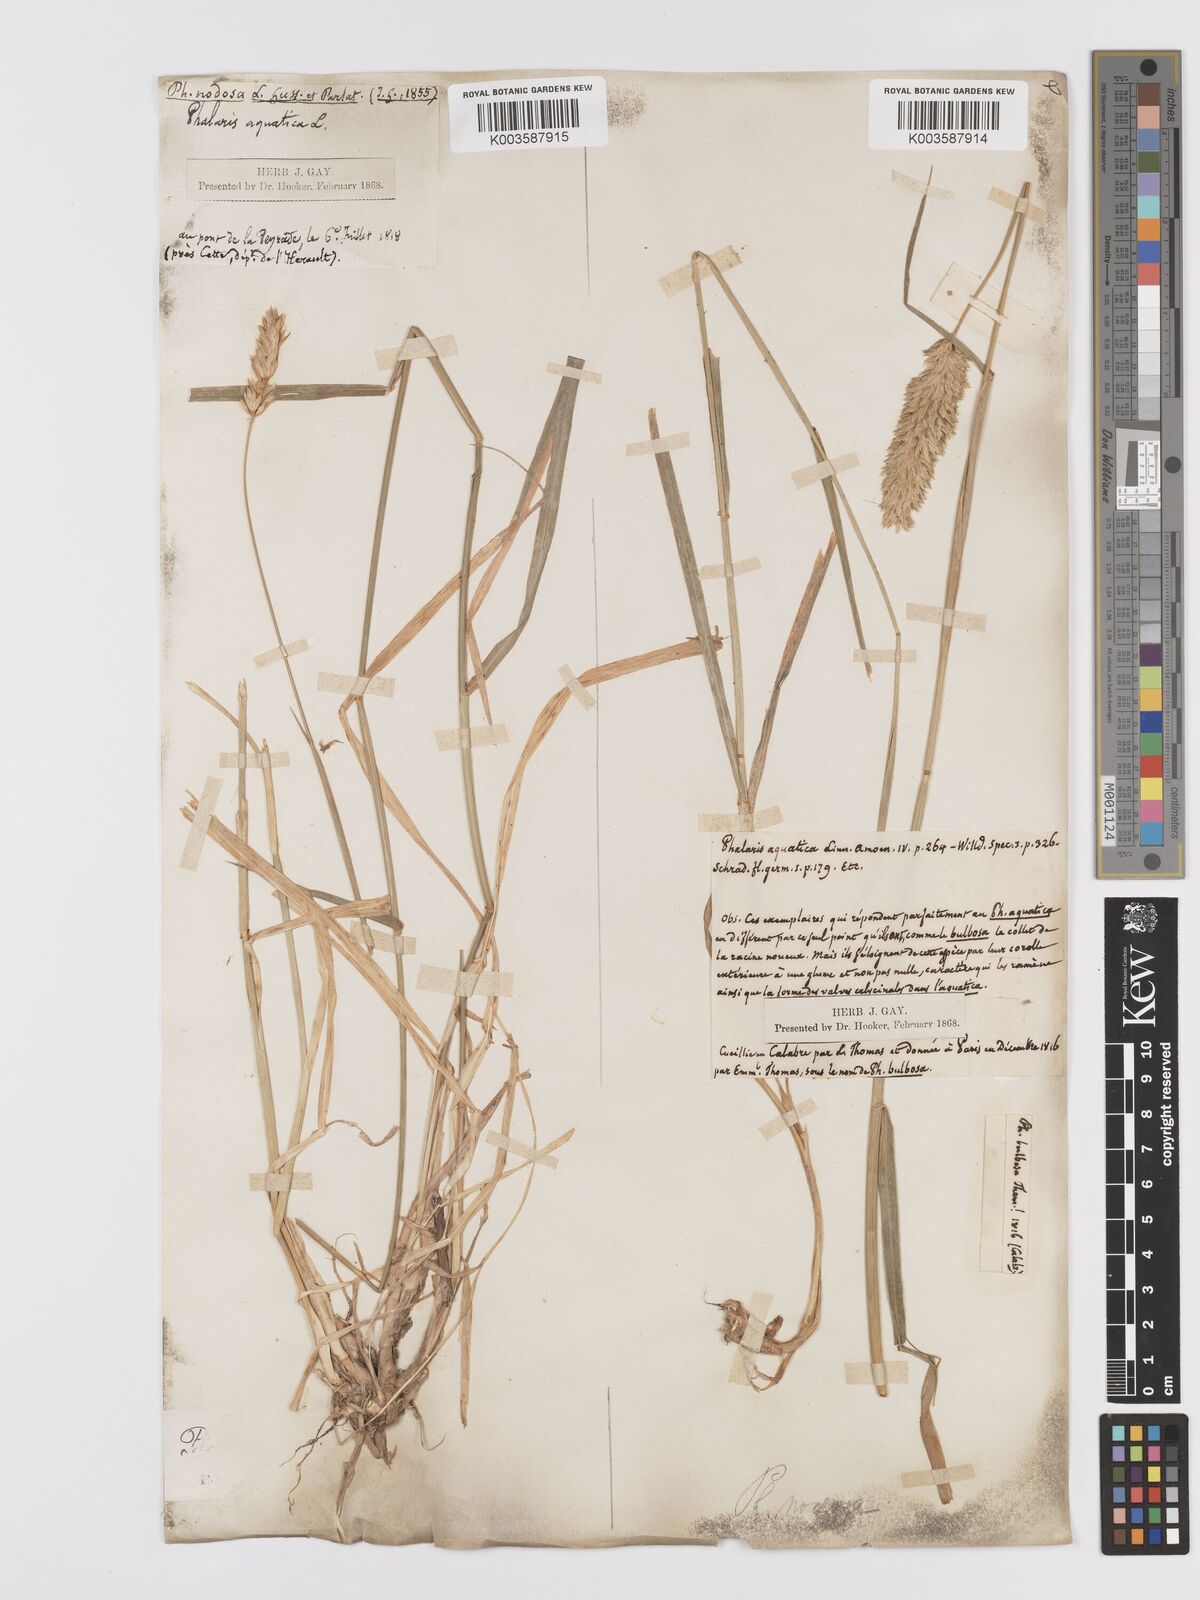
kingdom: Plantae
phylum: Tracheophyta
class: Liliopsida
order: Poales
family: Poaceae
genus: Phalaris
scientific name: Phalaris
